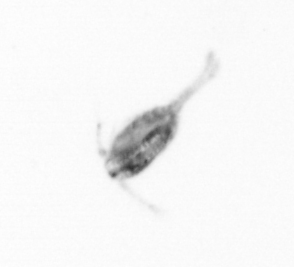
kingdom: Animalia
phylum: Arthropoda
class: Copepoda
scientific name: Copepoda
